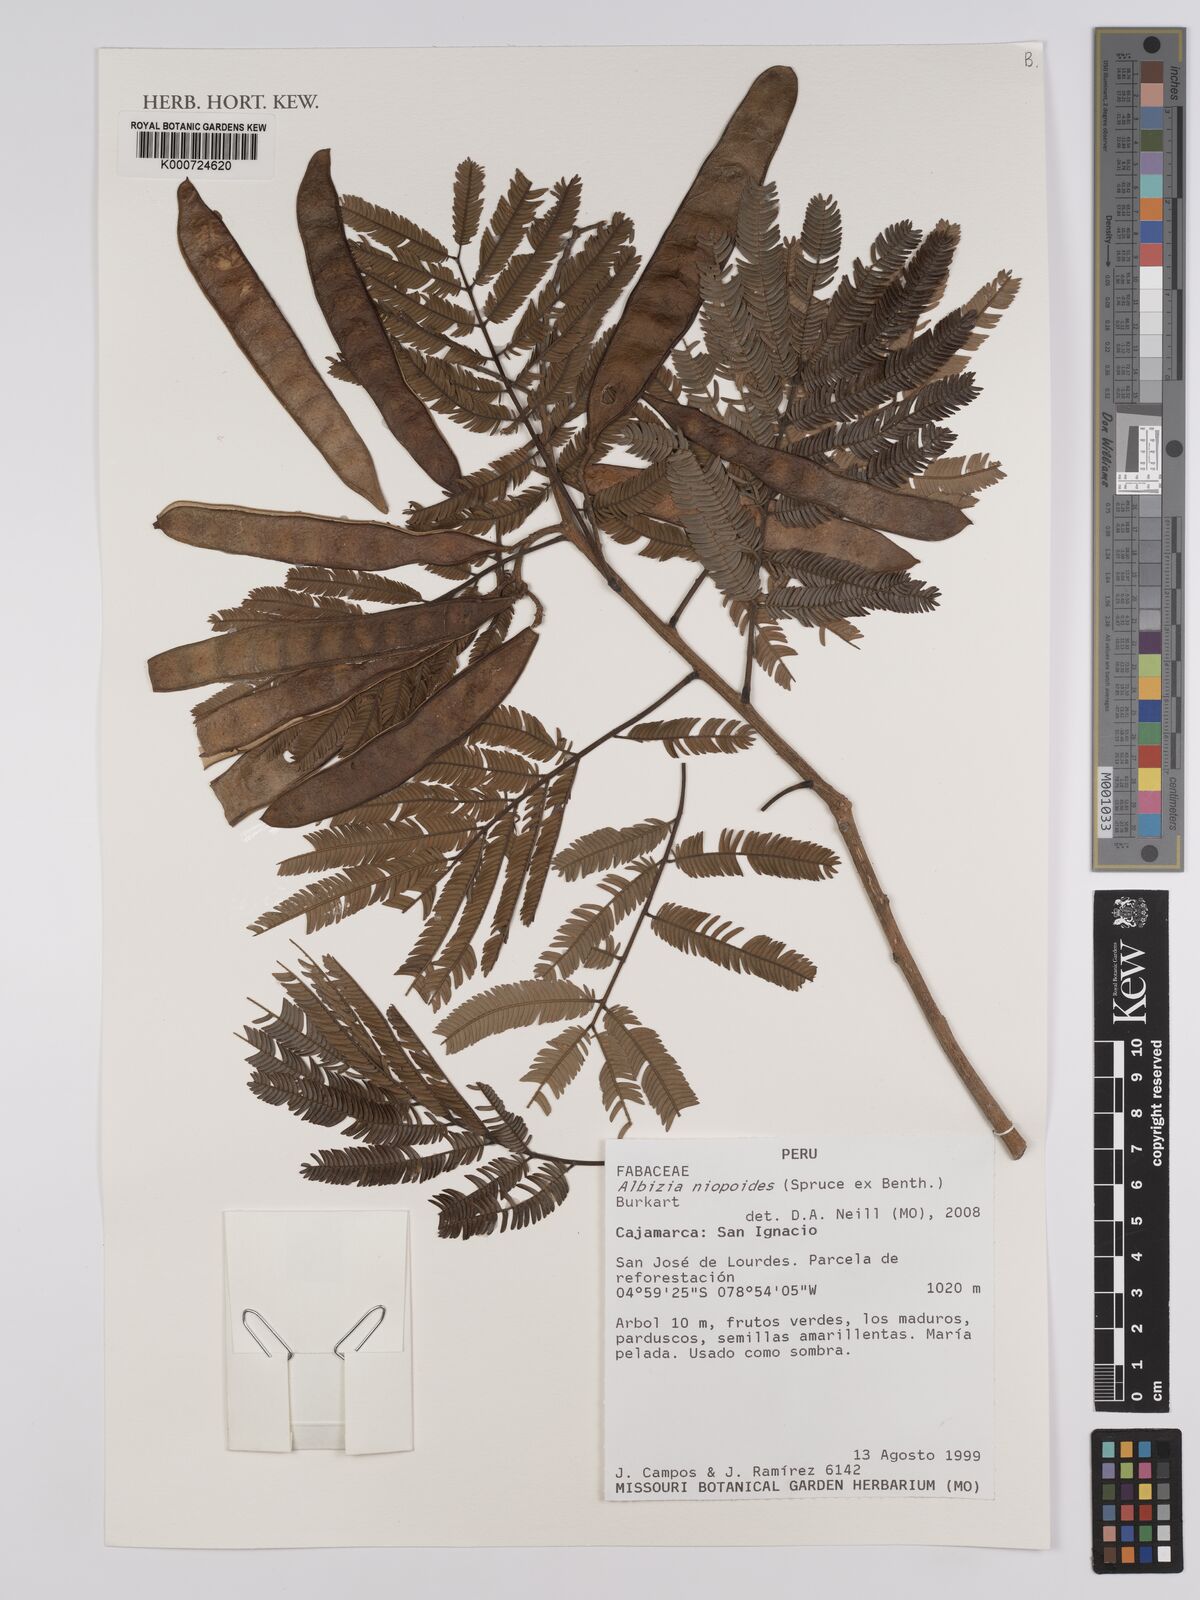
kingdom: Plantae
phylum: Tracheophyta
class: Magnoliopsida
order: Fabales
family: Fabaceae
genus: Albizia
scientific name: Albizia niopoides
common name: Silk tree
